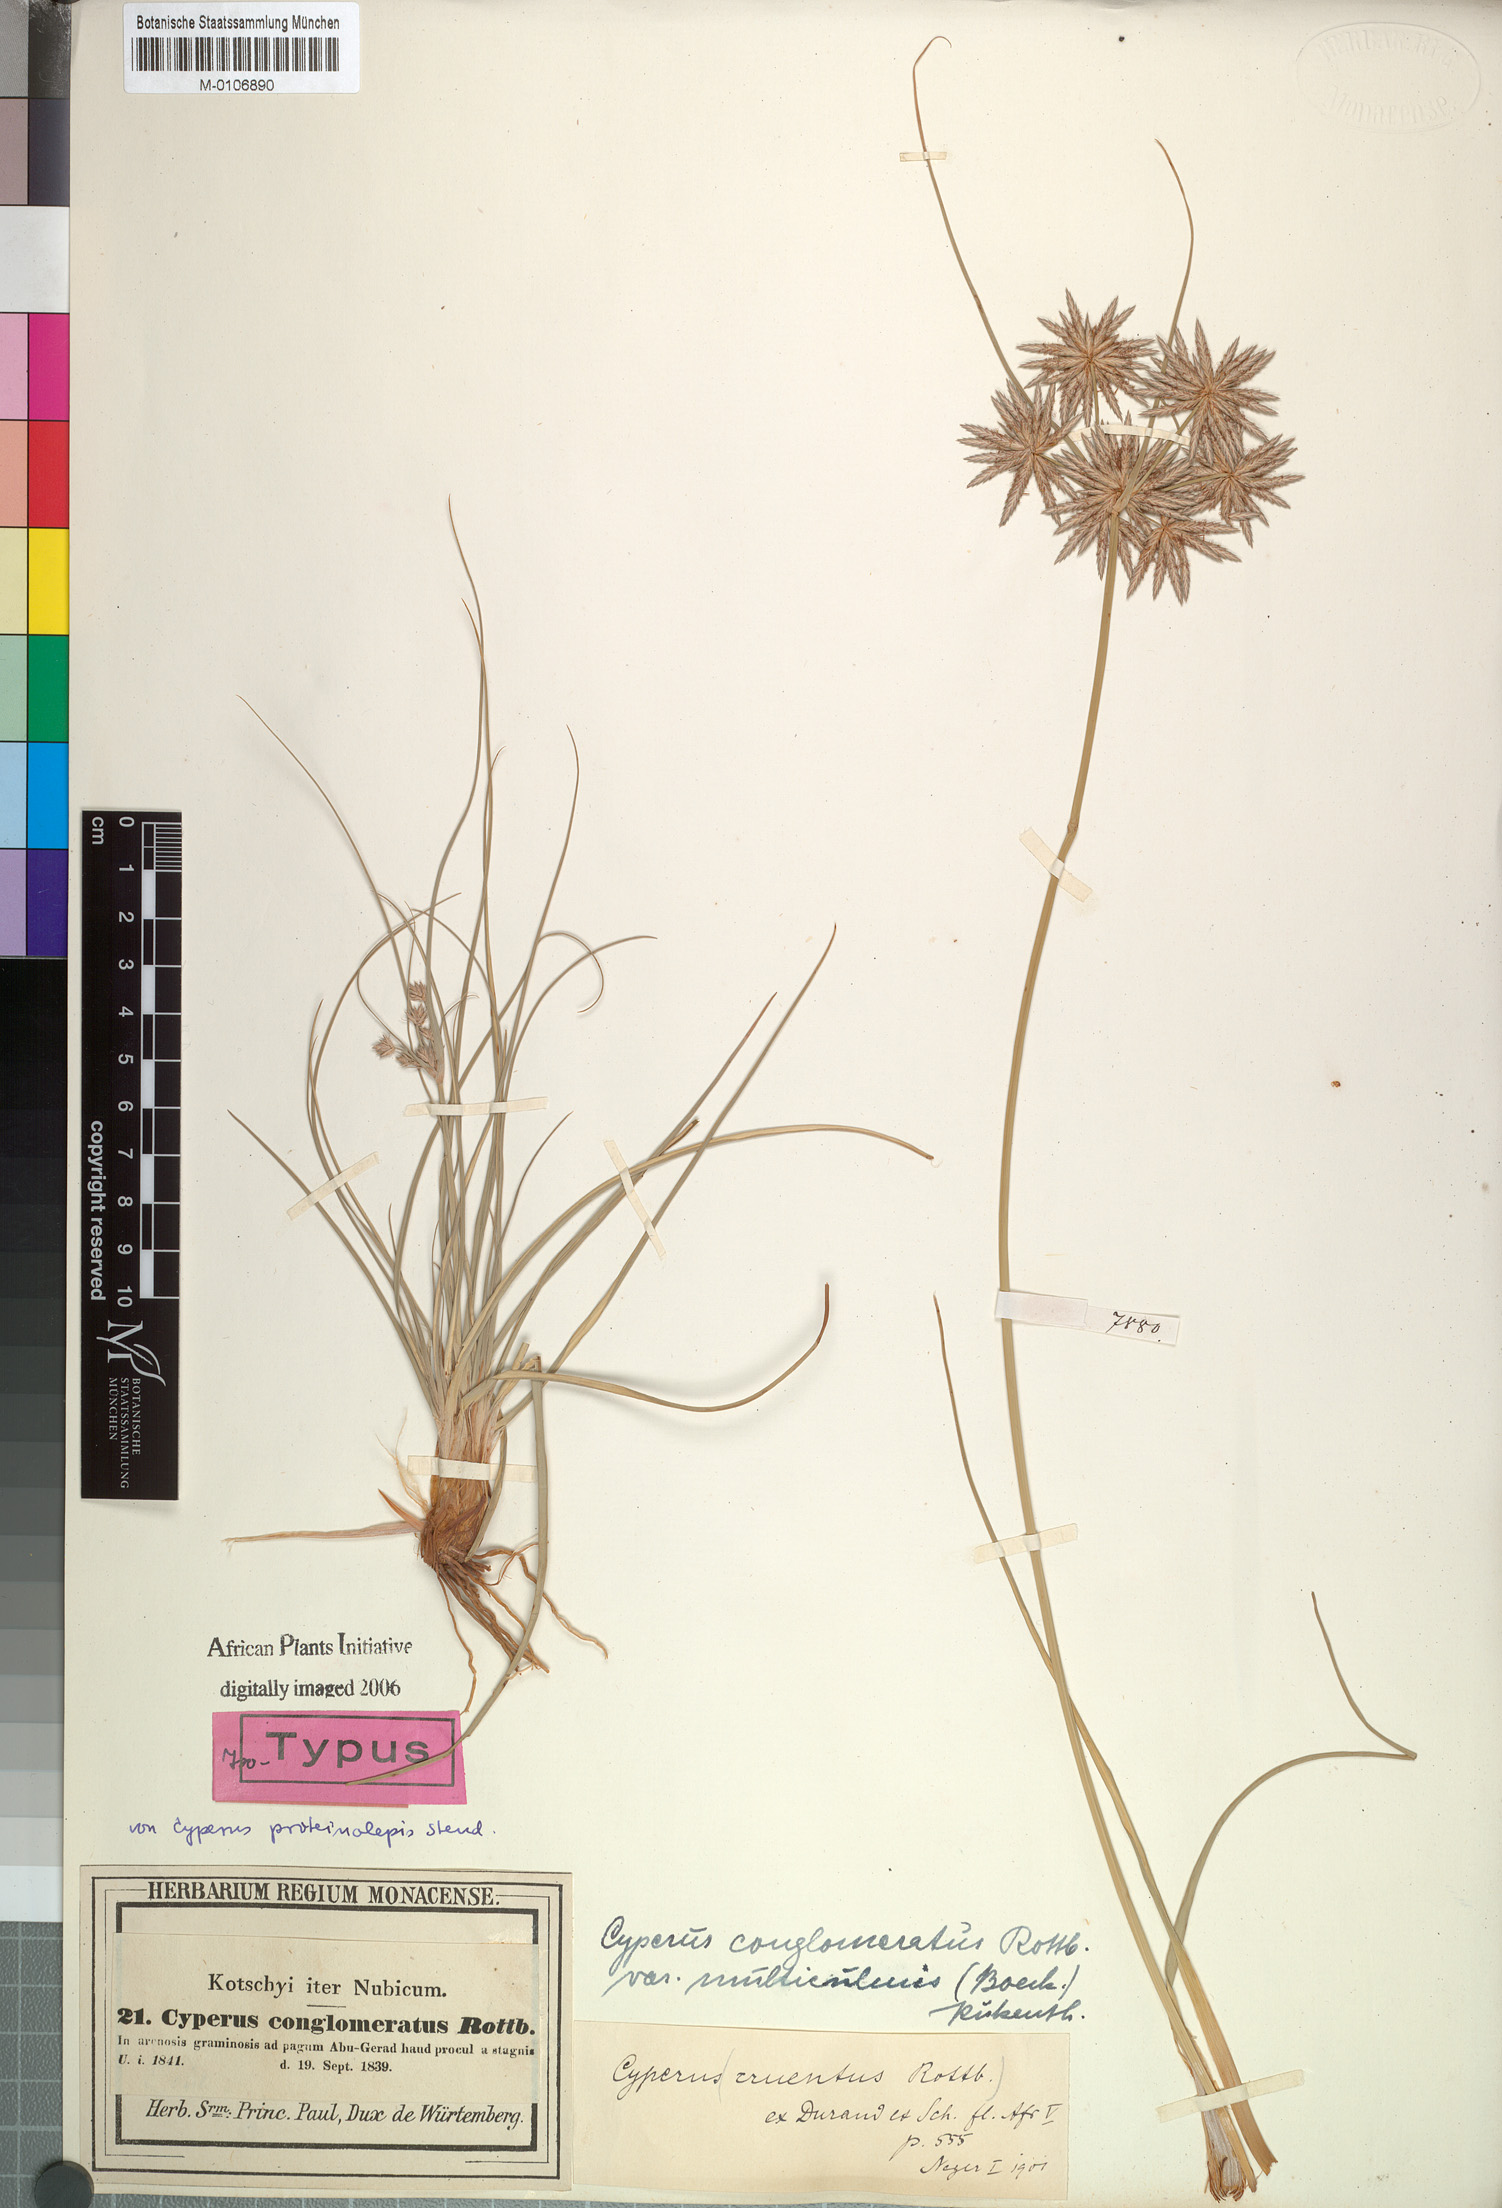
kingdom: Plantae
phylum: Tracheophyta
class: Liliopsida
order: Poales
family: Cyperaceae
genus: Cyperus
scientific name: Cyperus conglomeratus
